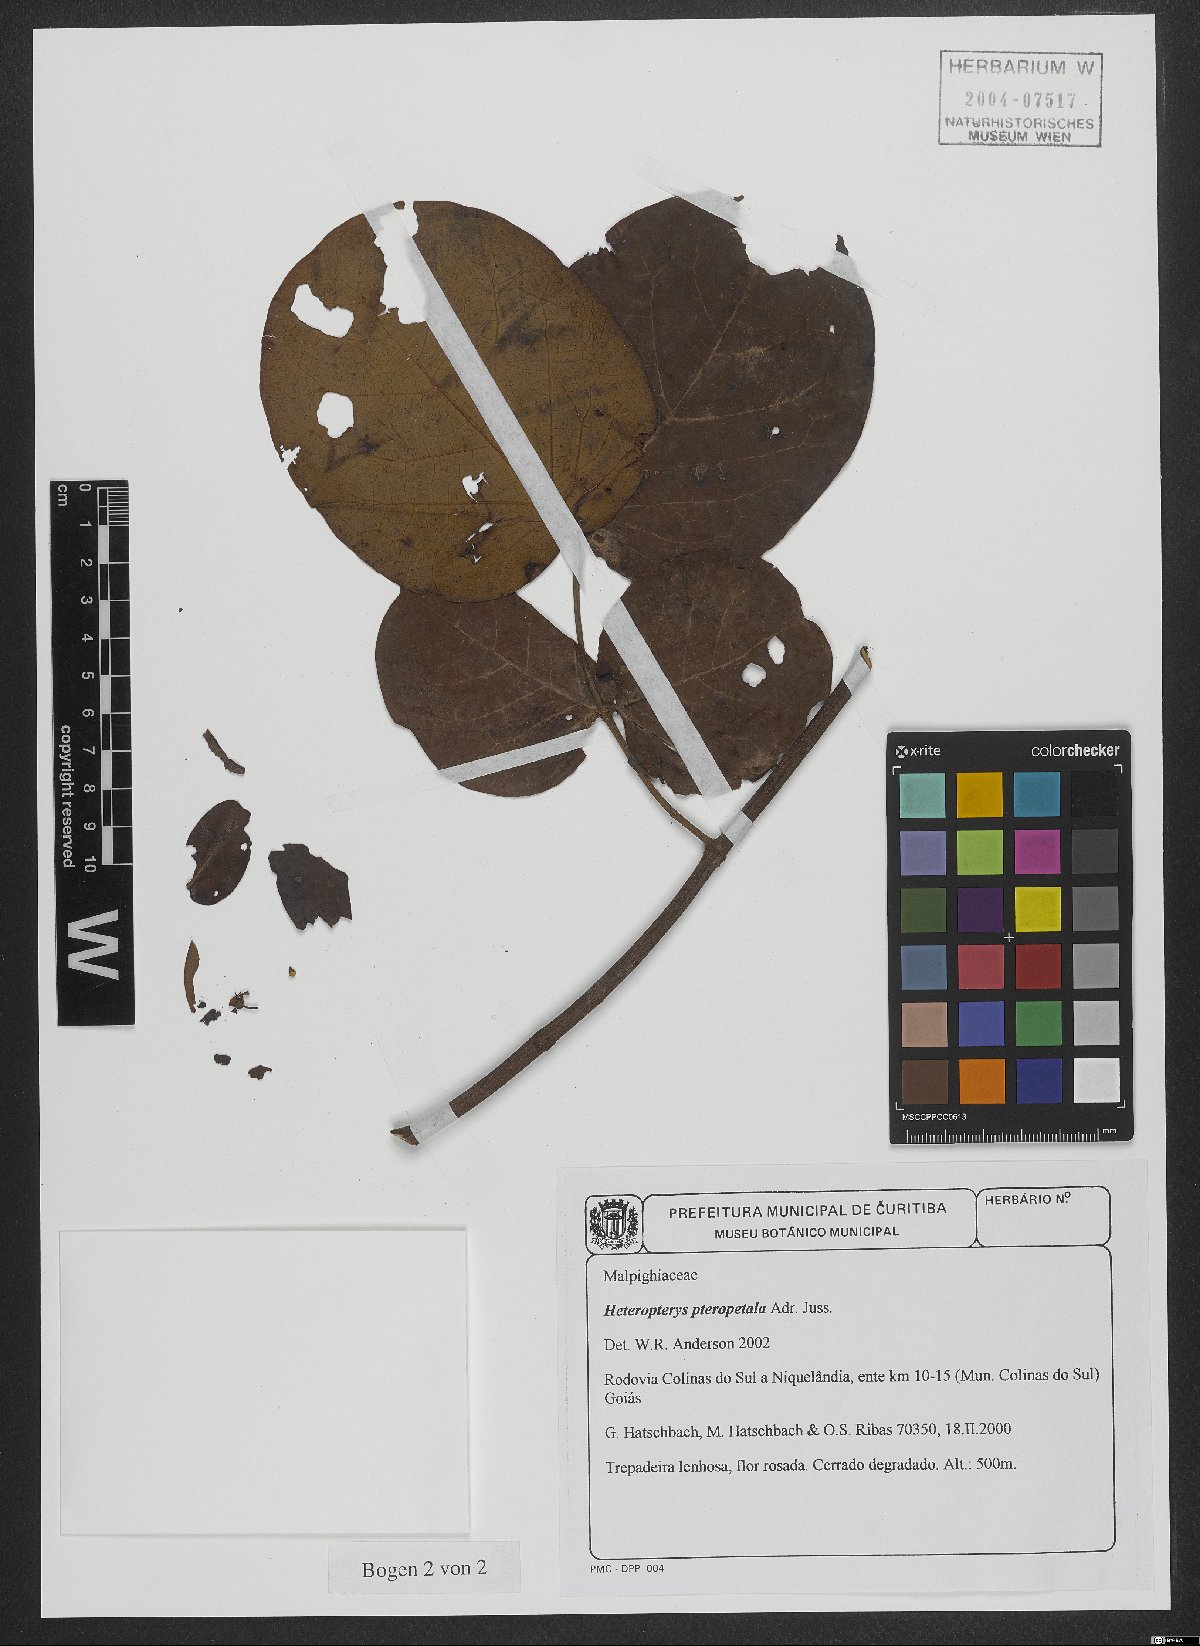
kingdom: Plantae
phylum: Tracheophyta
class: Magnoliopsida
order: Malpighiales
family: Malpighiaceae
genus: Heteropterys
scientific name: Heteropterys pteropetala
